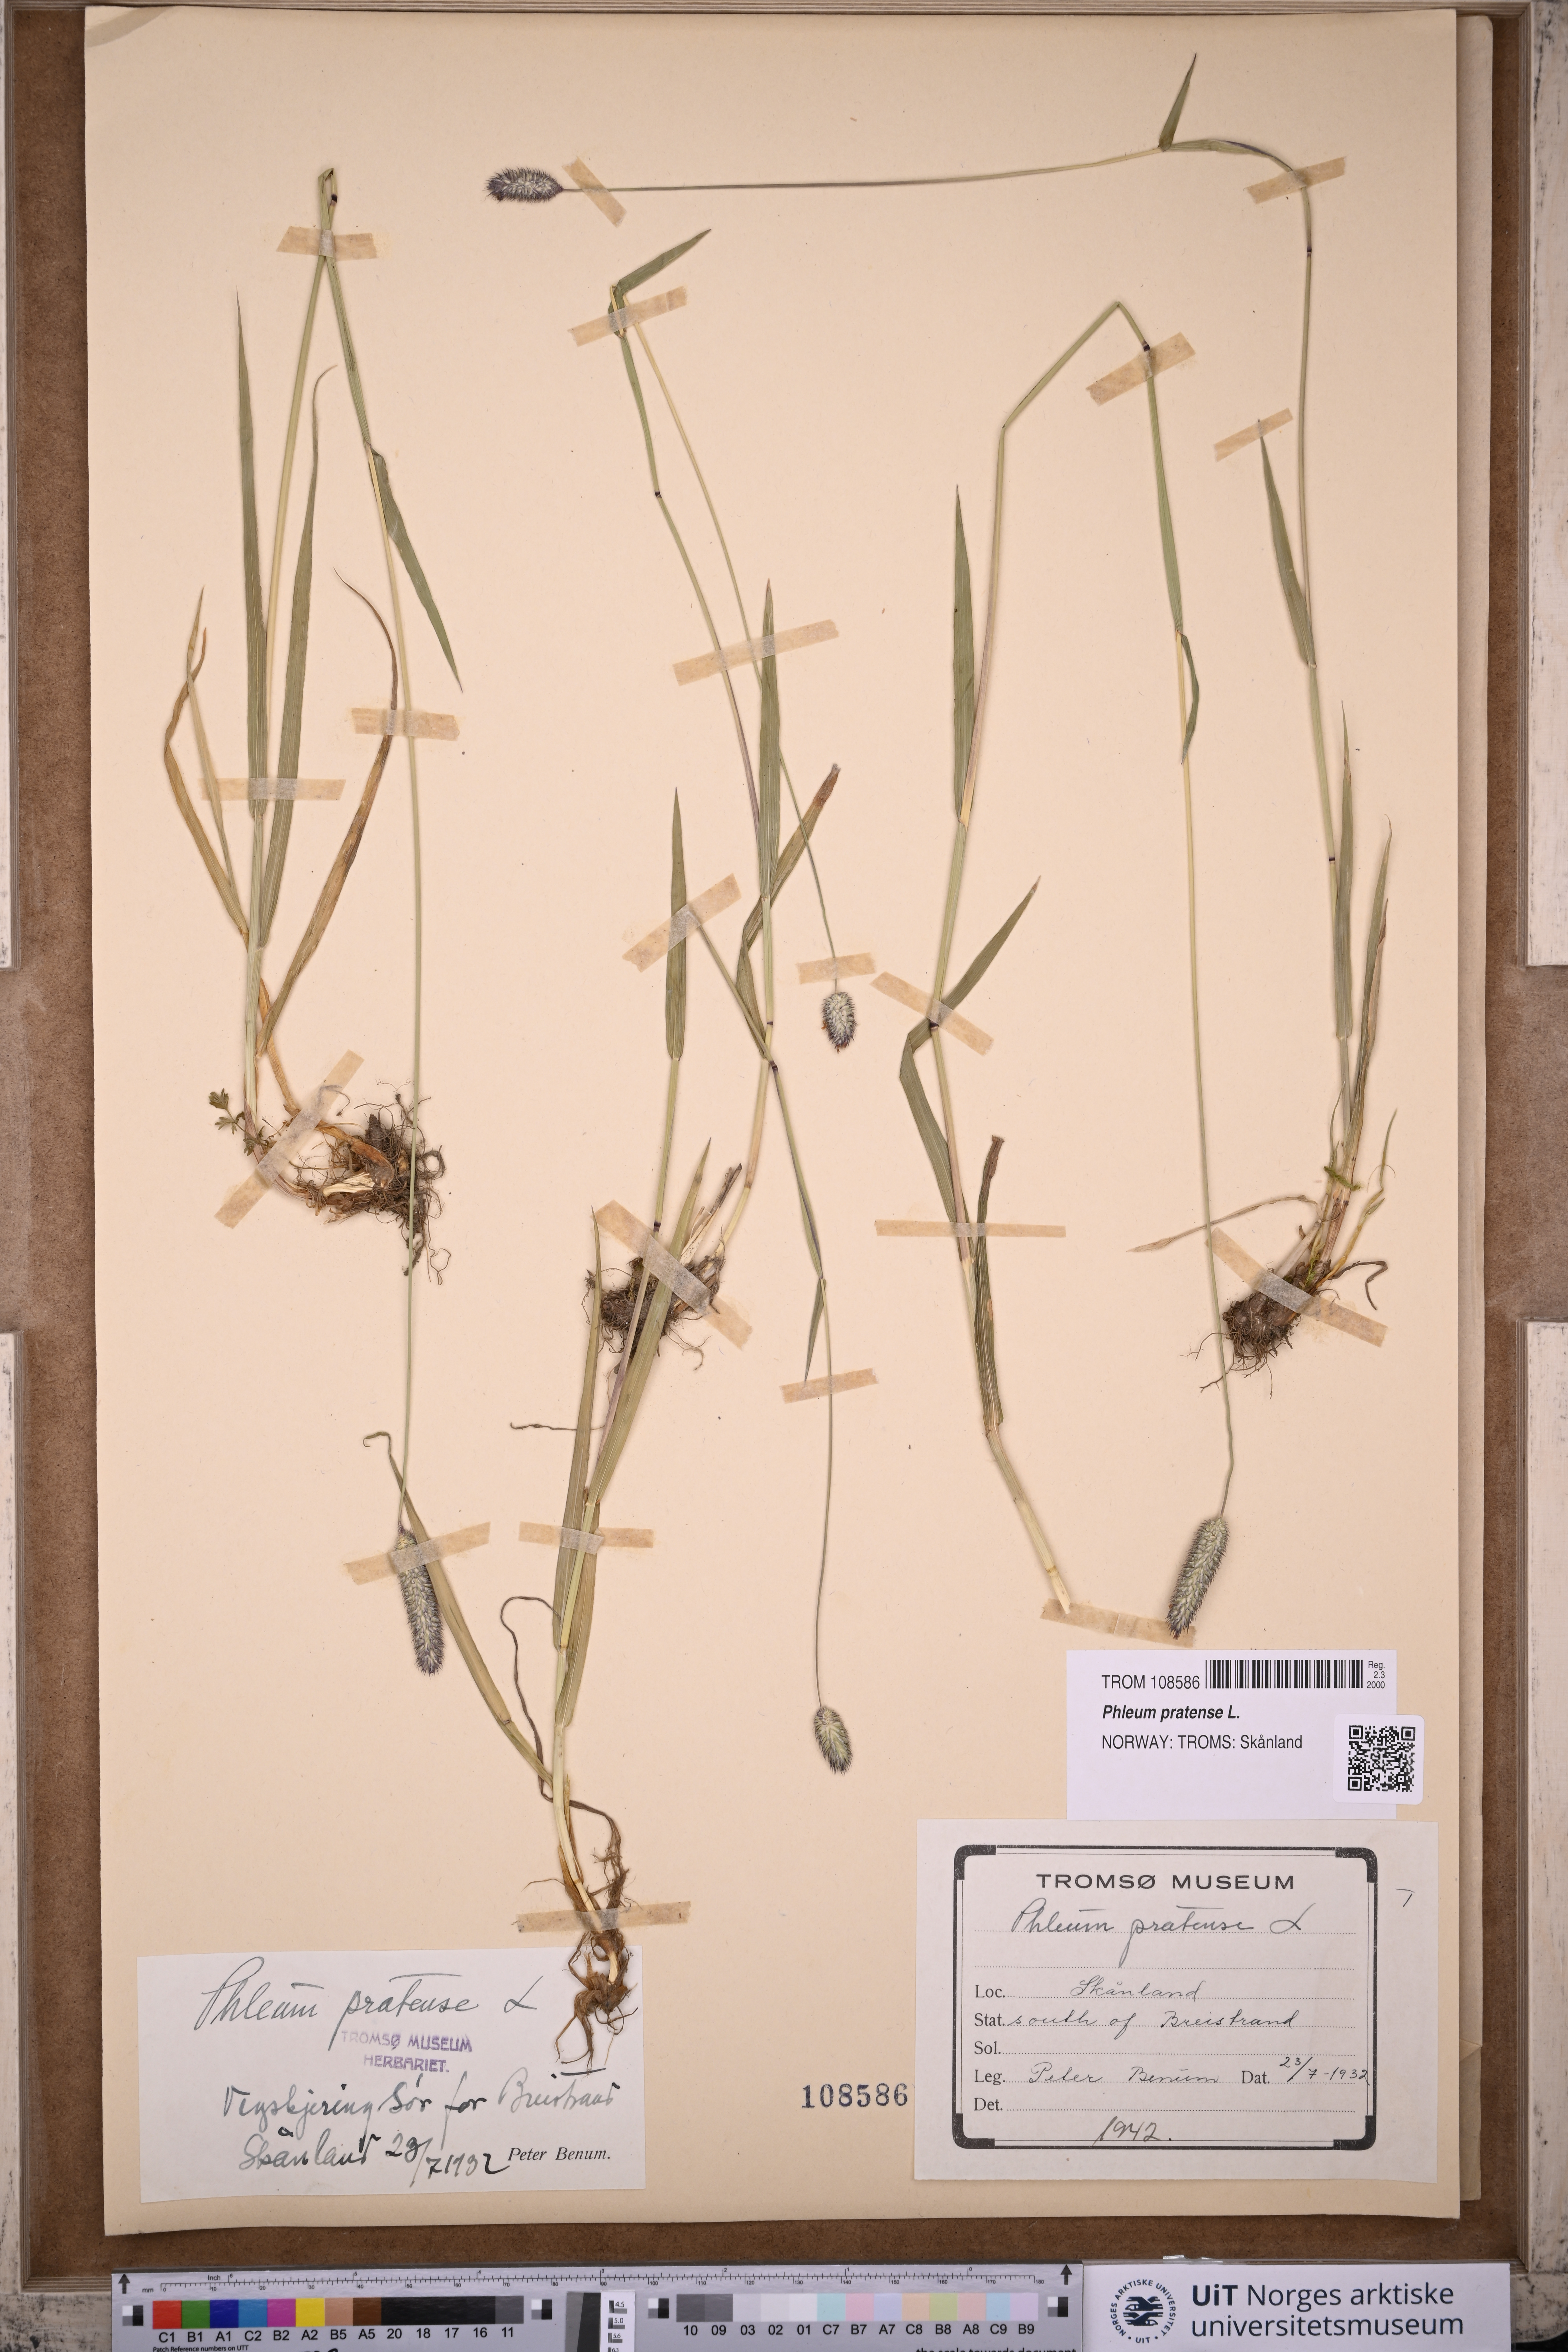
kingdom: Plantae
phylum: Tracheophyta
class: Liliopsida
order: Poales
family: Poaceae
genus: Phleum
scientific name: Phleum pratense
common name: Timothy grass
